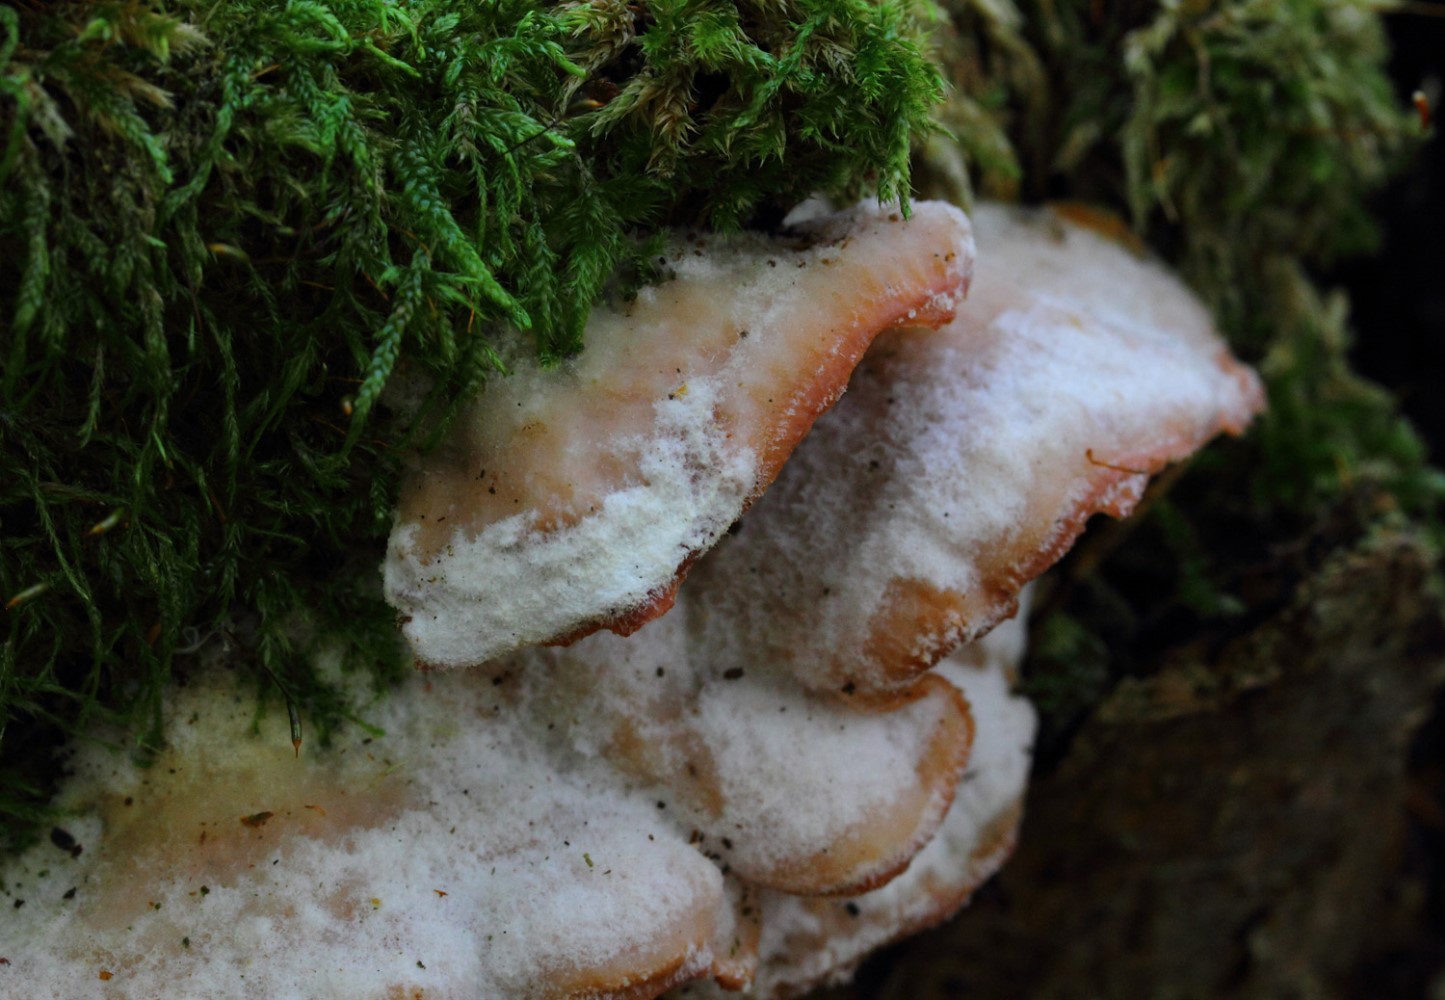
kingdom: Fungi
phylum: Basidiomycota
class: Agaricomycetes
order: Polyporales
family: Meruliaceae
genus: Phlebia
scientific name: Phlebia tremellosa
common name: bævrende åresvamp
